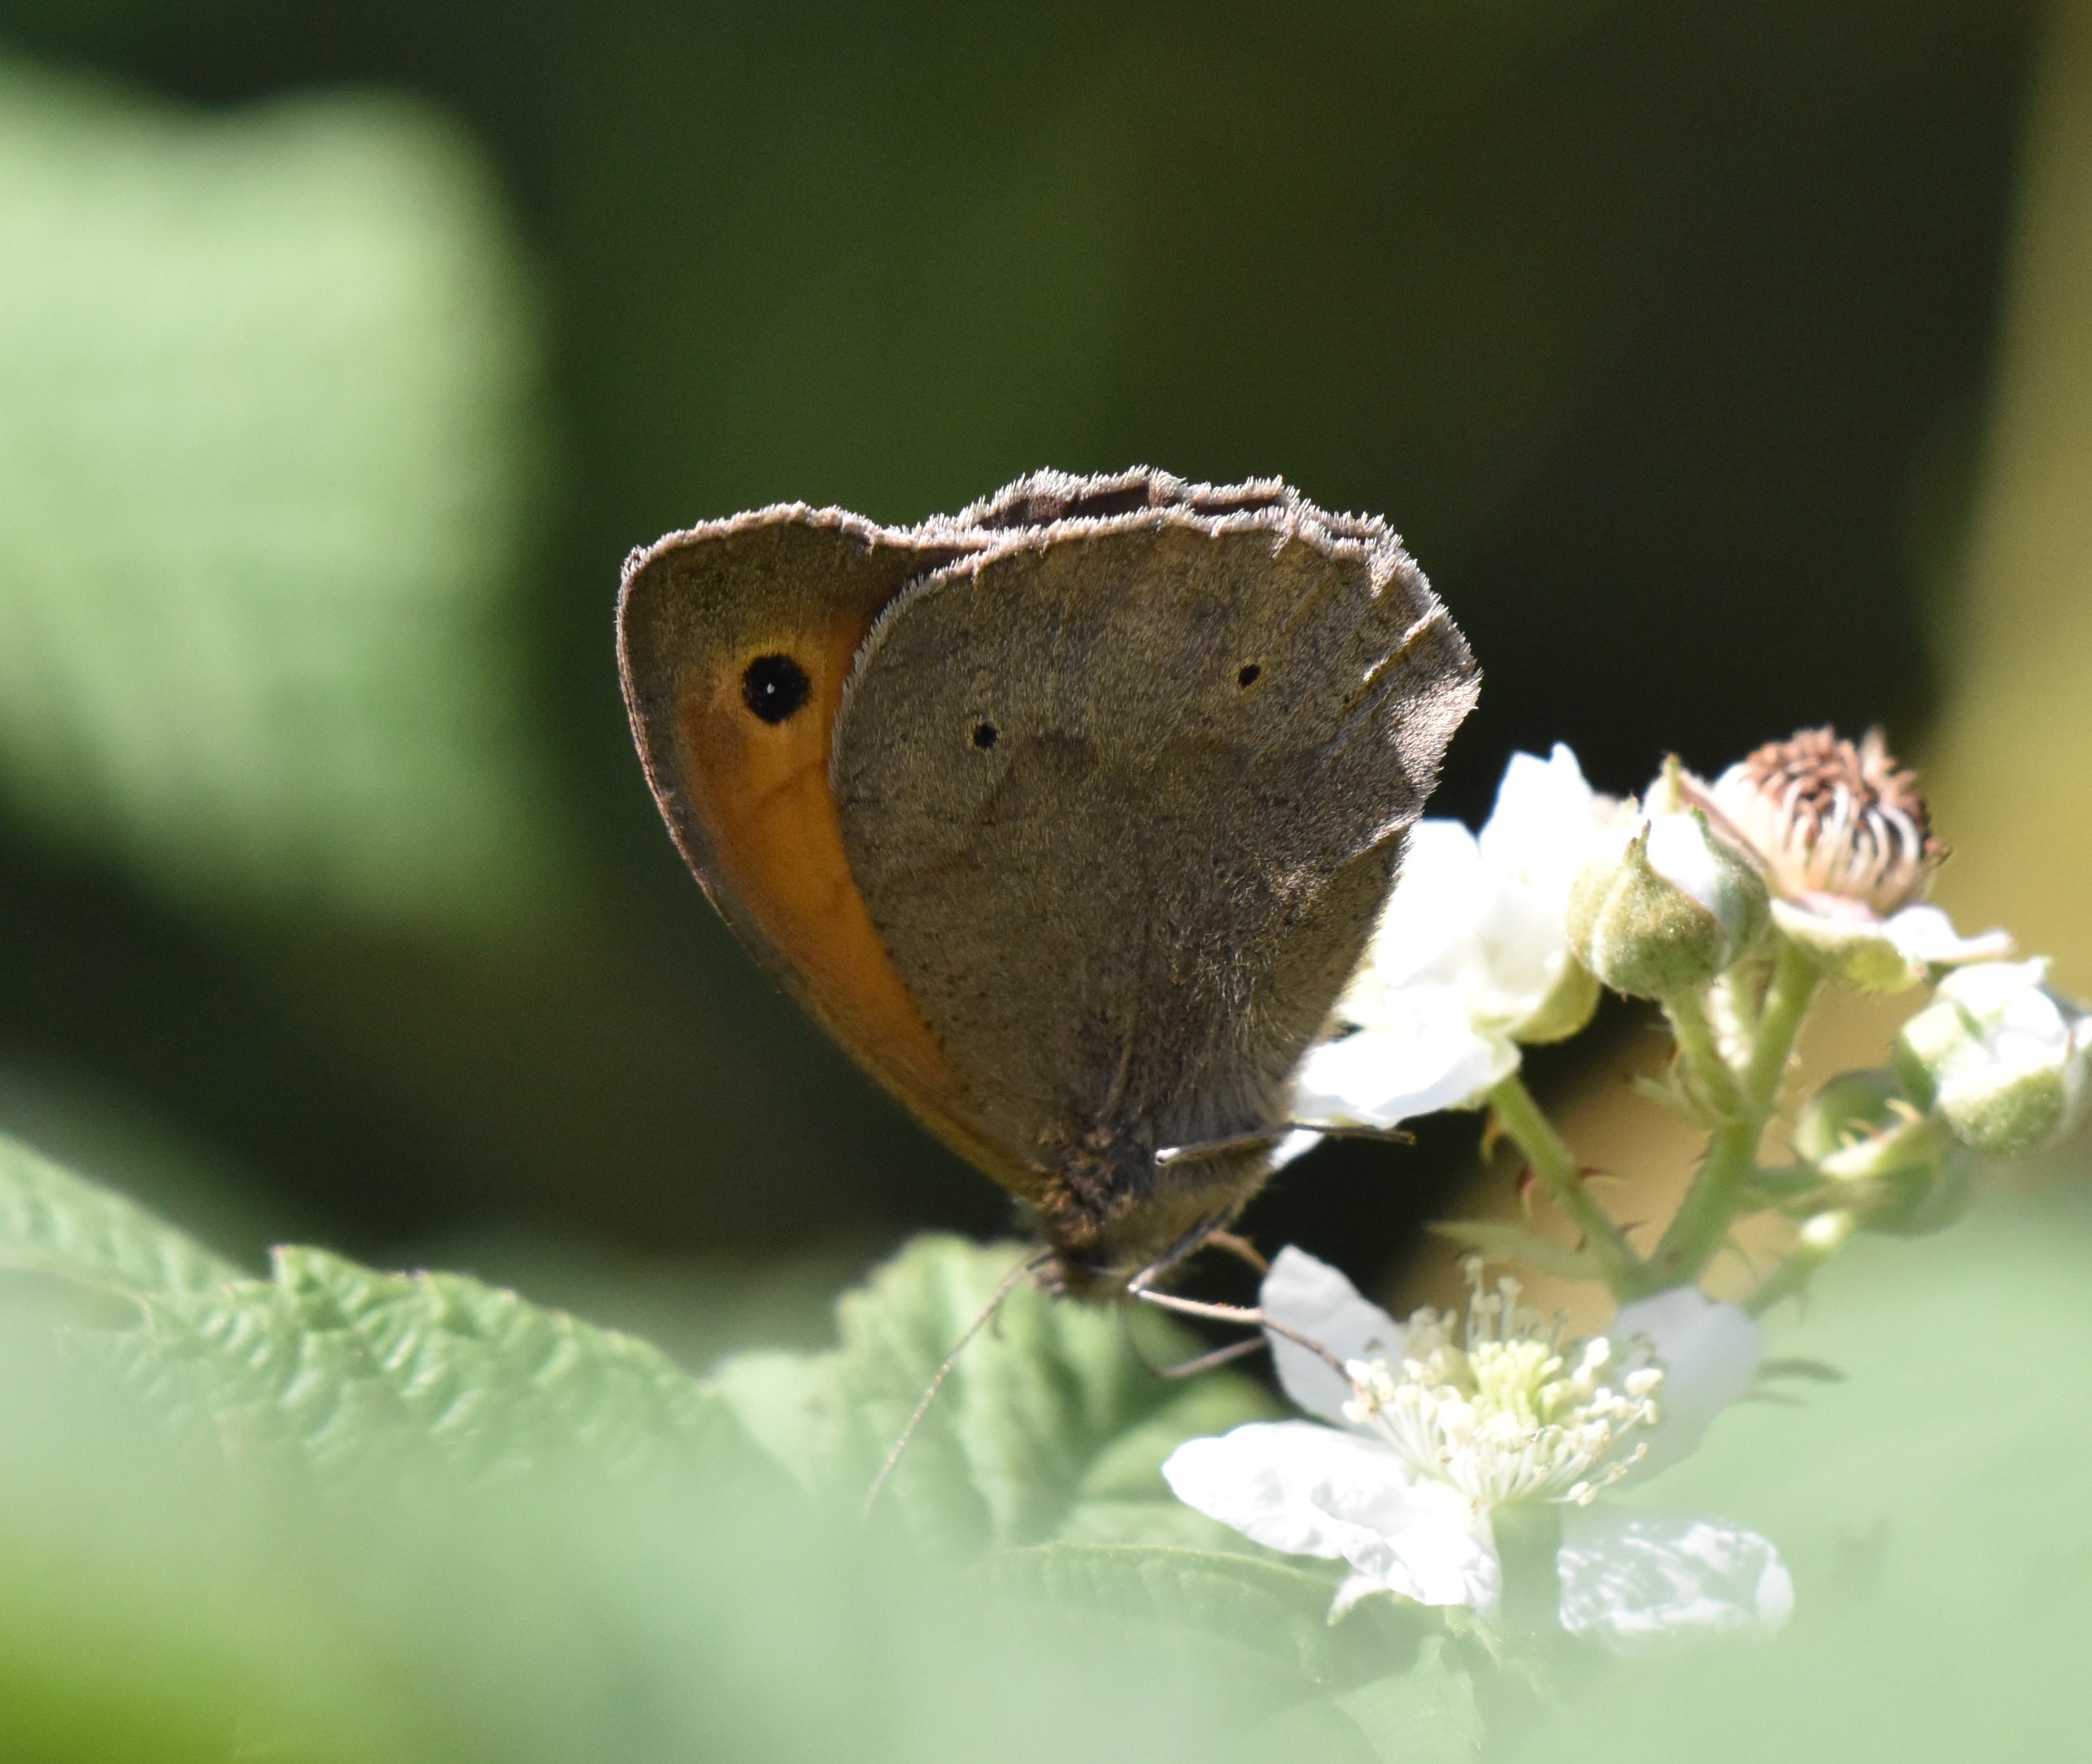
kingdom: Animalia
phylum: Arthropoda
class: Insecta
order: Lepidoptera
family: Nymphalidae
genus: Maniola
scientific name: Maniola jurtina
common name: Græsrandøje
